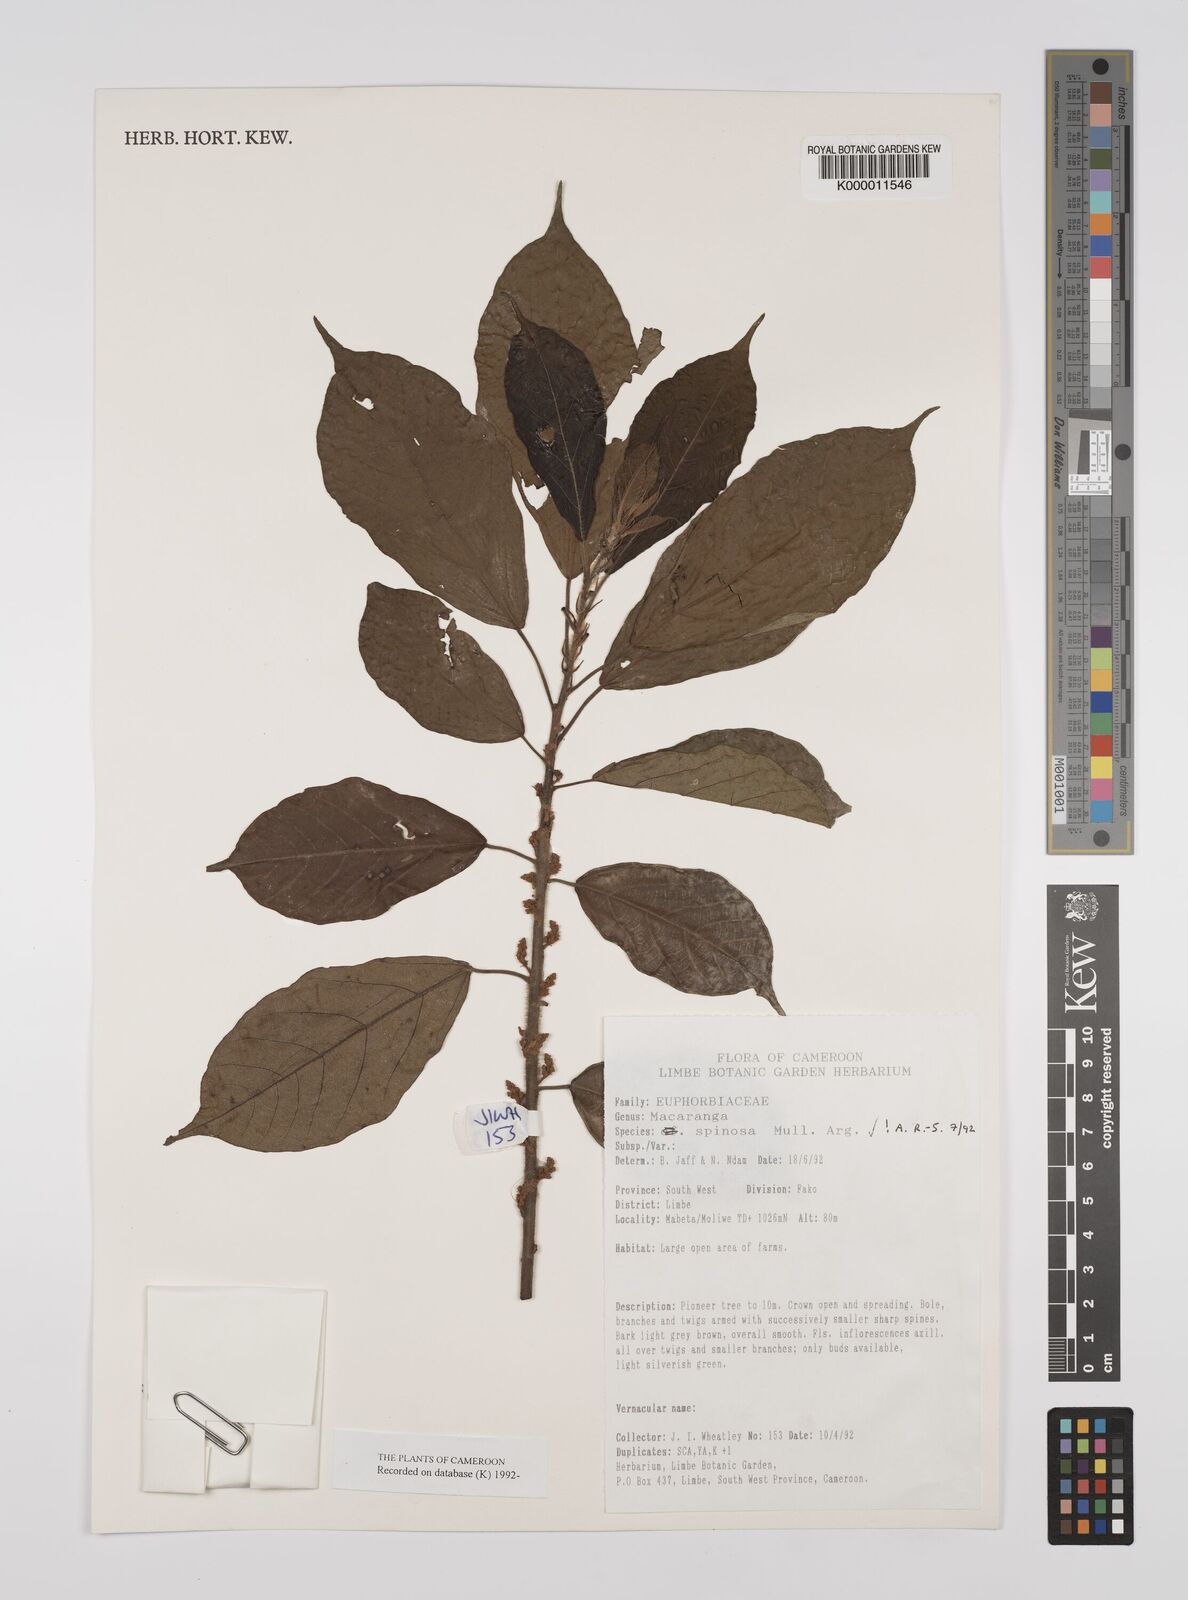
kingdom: Plantae
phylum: Tracheophyta
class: Magnoliopsida
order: Malpighiales
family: Euphorbiaceae
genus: Macaranga
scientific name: Macaranga
